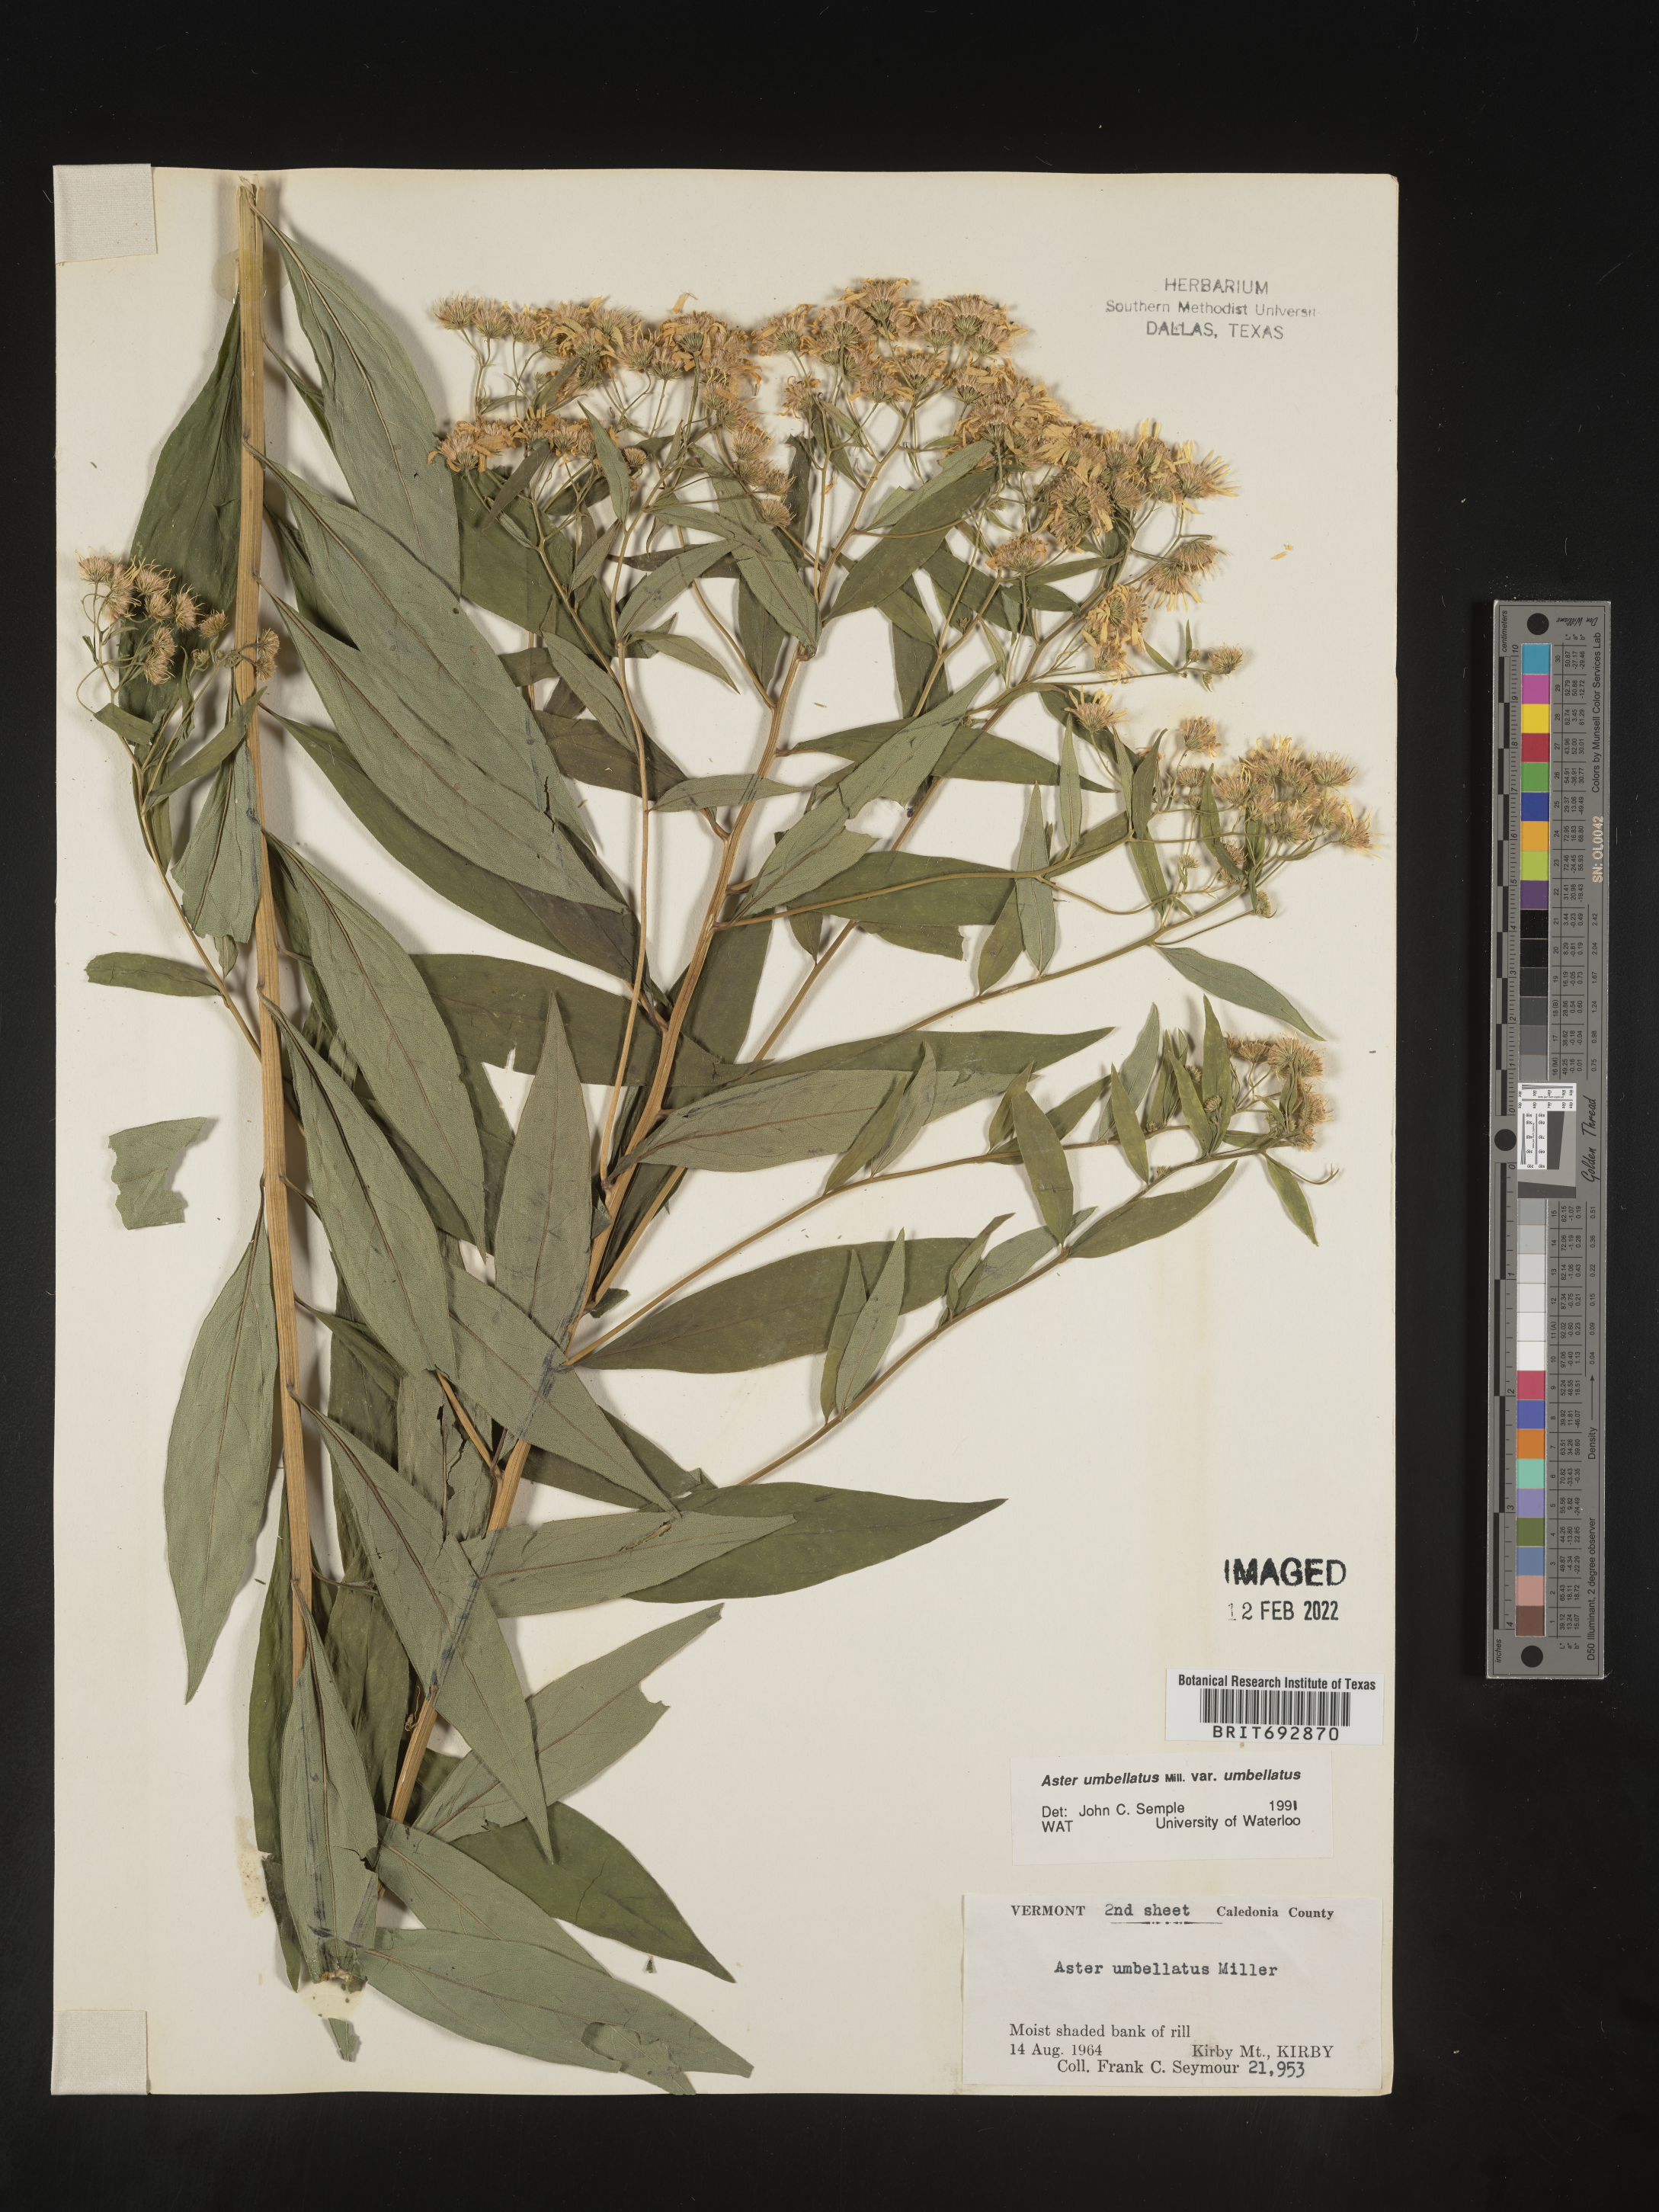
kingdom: Plantae
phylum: Tracheophyta
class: Magnoliopsida
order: Asterales
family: Asteraceae
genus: Doellingeria
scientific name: Doellingeria umbellata
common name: Flat-top white aster
